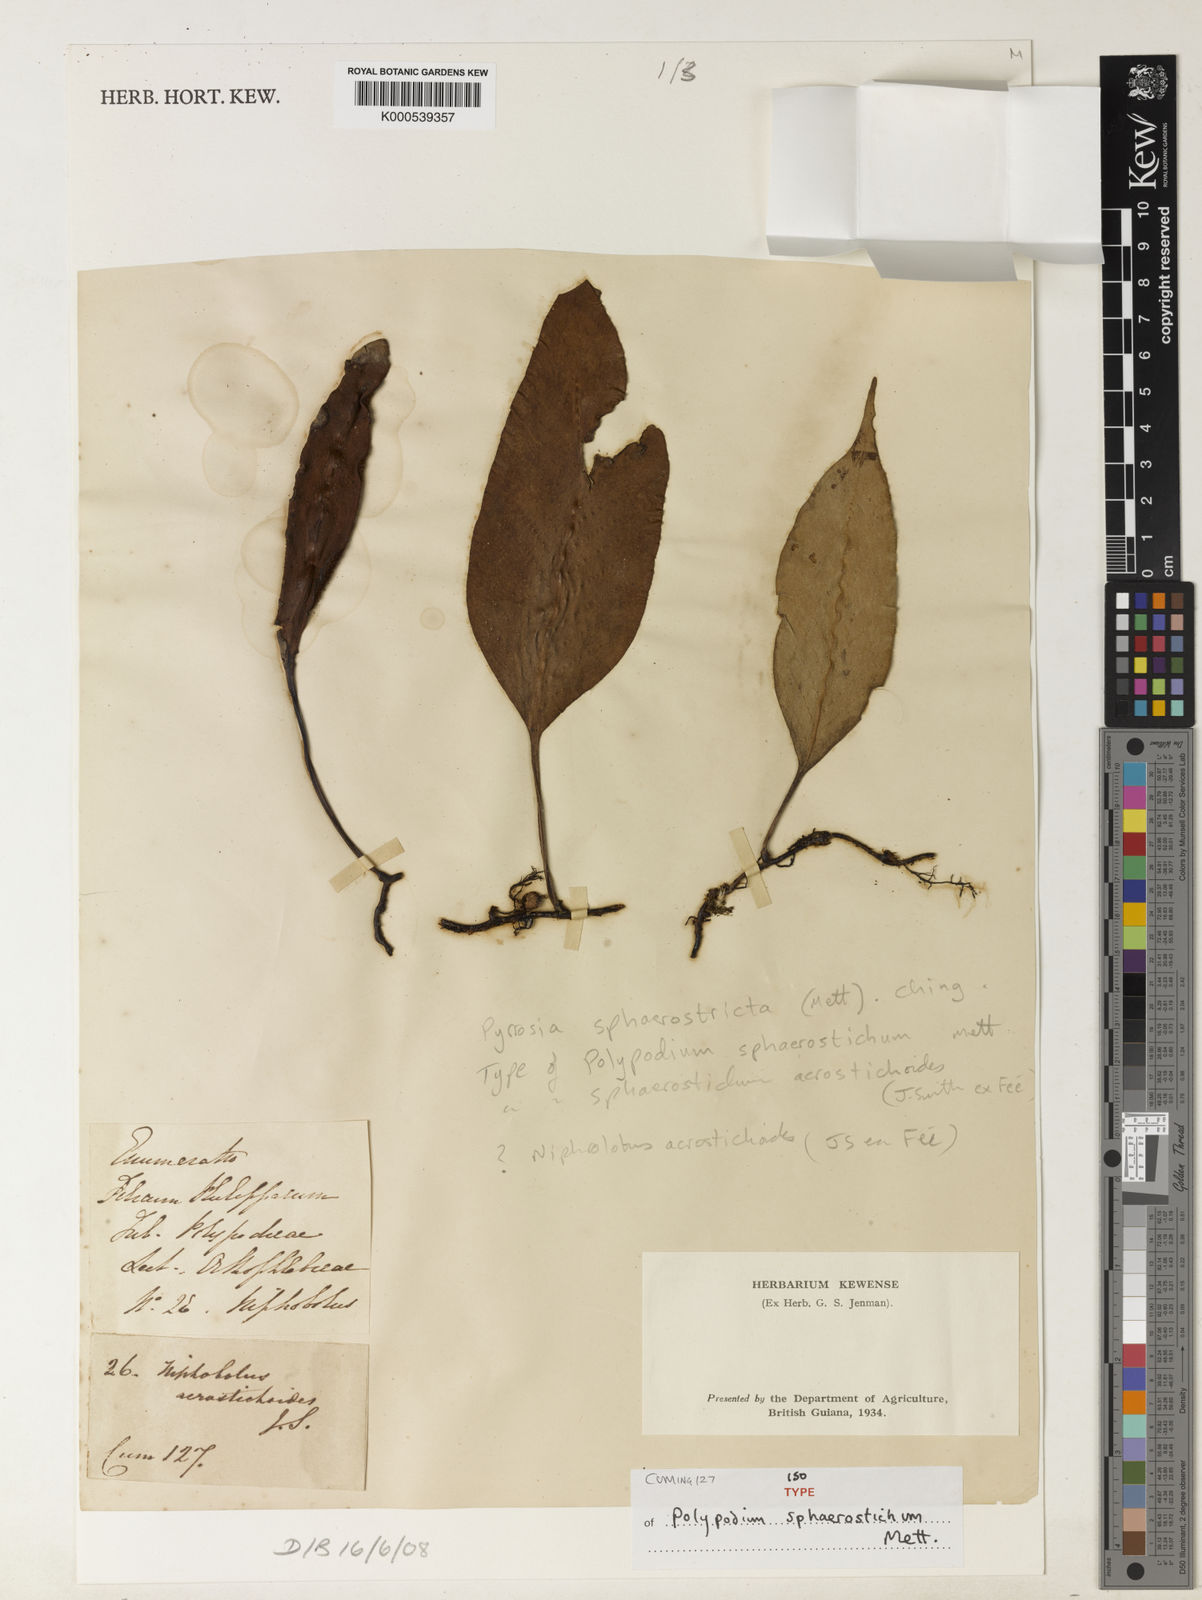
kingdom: Plantae
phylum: Tracheophyta
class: Polypodiopsida
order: Polypodiales
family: Polypodiaceae
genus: Pyrrosia
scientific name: Pyrrosia sphaerosticha
